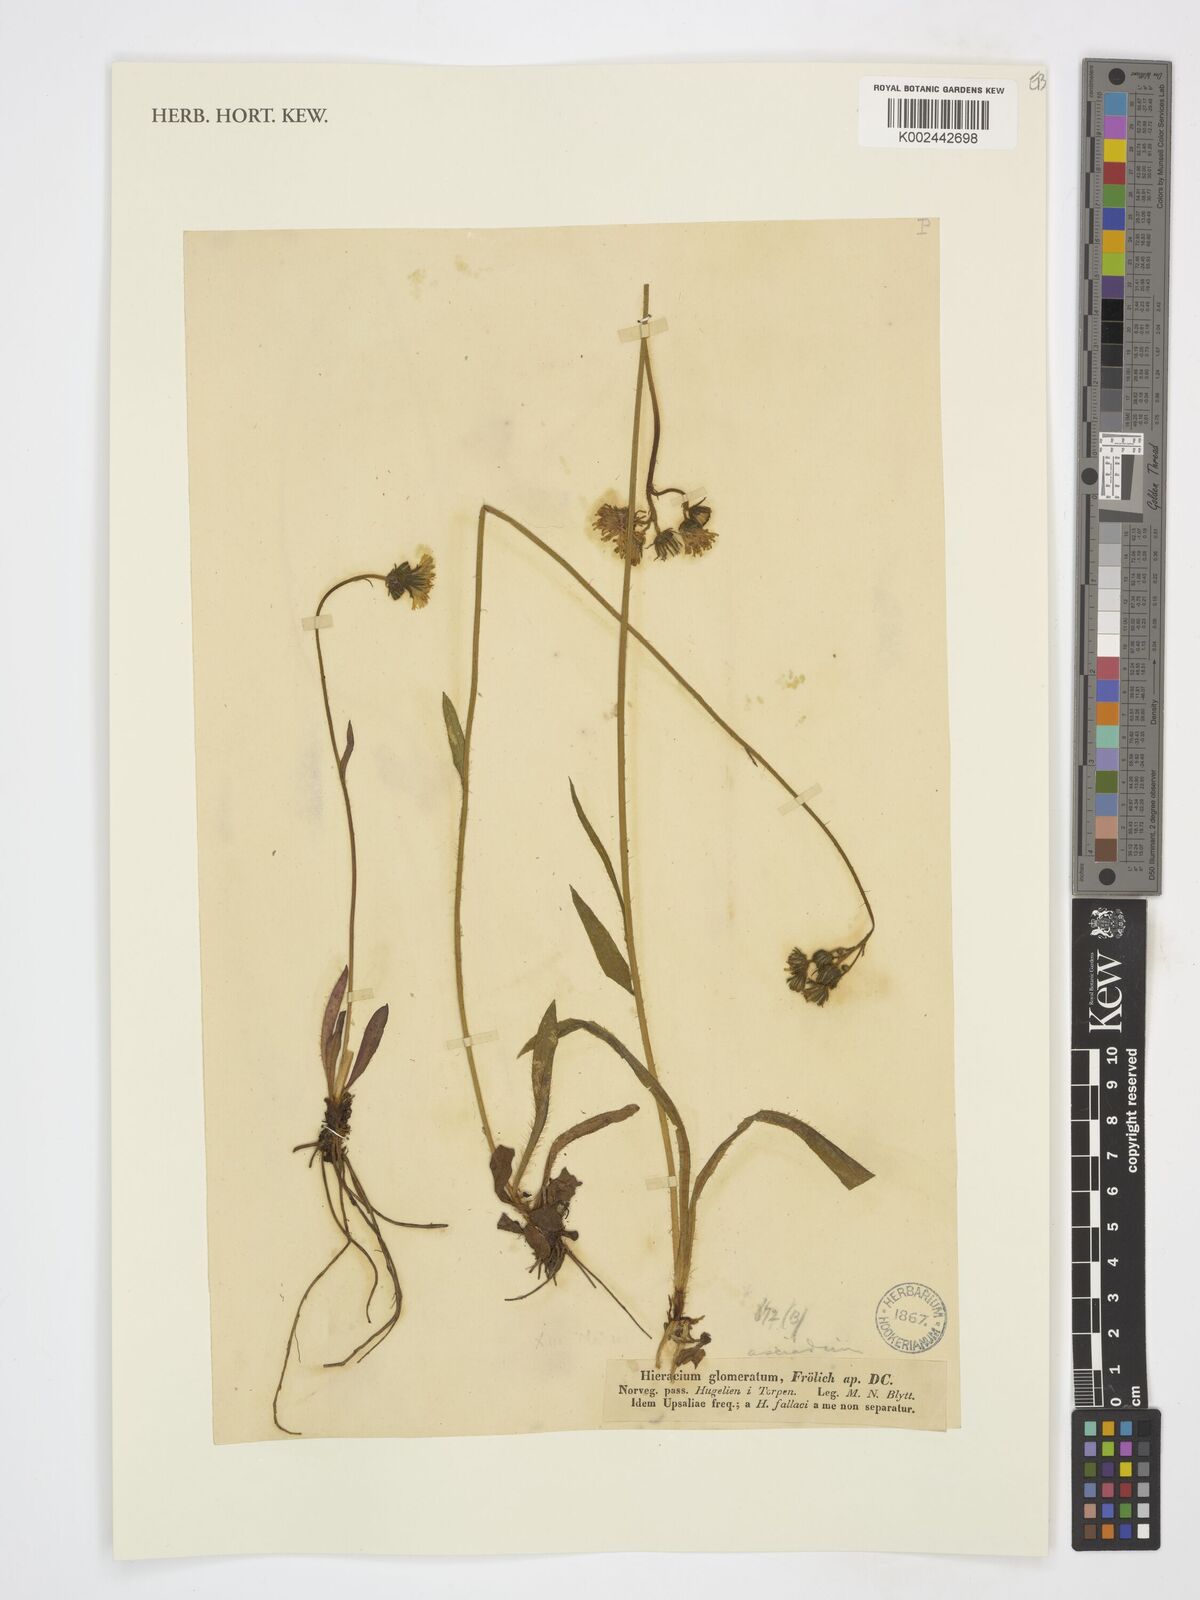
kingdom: Plantae
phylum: Tracheophyta
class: Magnoliopsida
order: Asterales
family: Asteraceae
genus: Pilosella
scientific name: Pilosella glomerata
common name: Queen devil hawkweed
